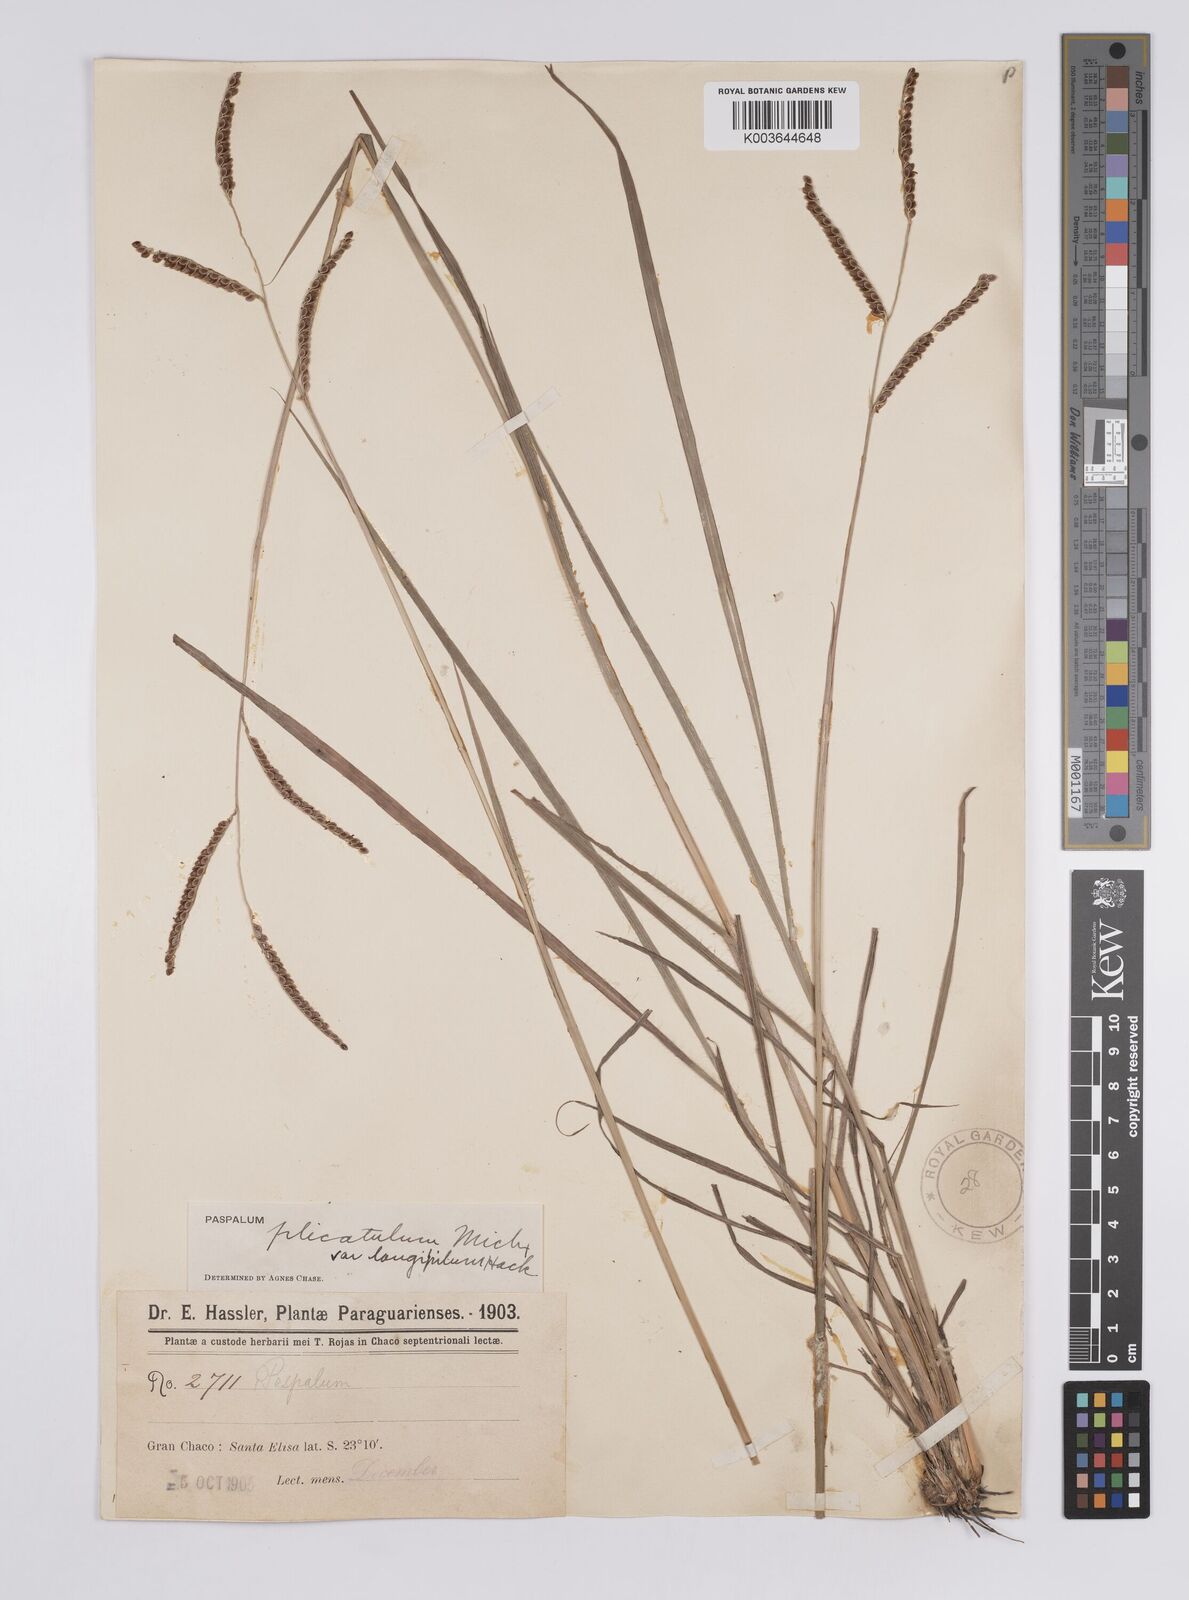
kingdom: Plantae
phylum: Tracheophyta
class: Liliopsida
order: Poales
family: Poaceae
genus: Paspalum
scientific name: Paspalum plicatulum
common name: Top paspalum
